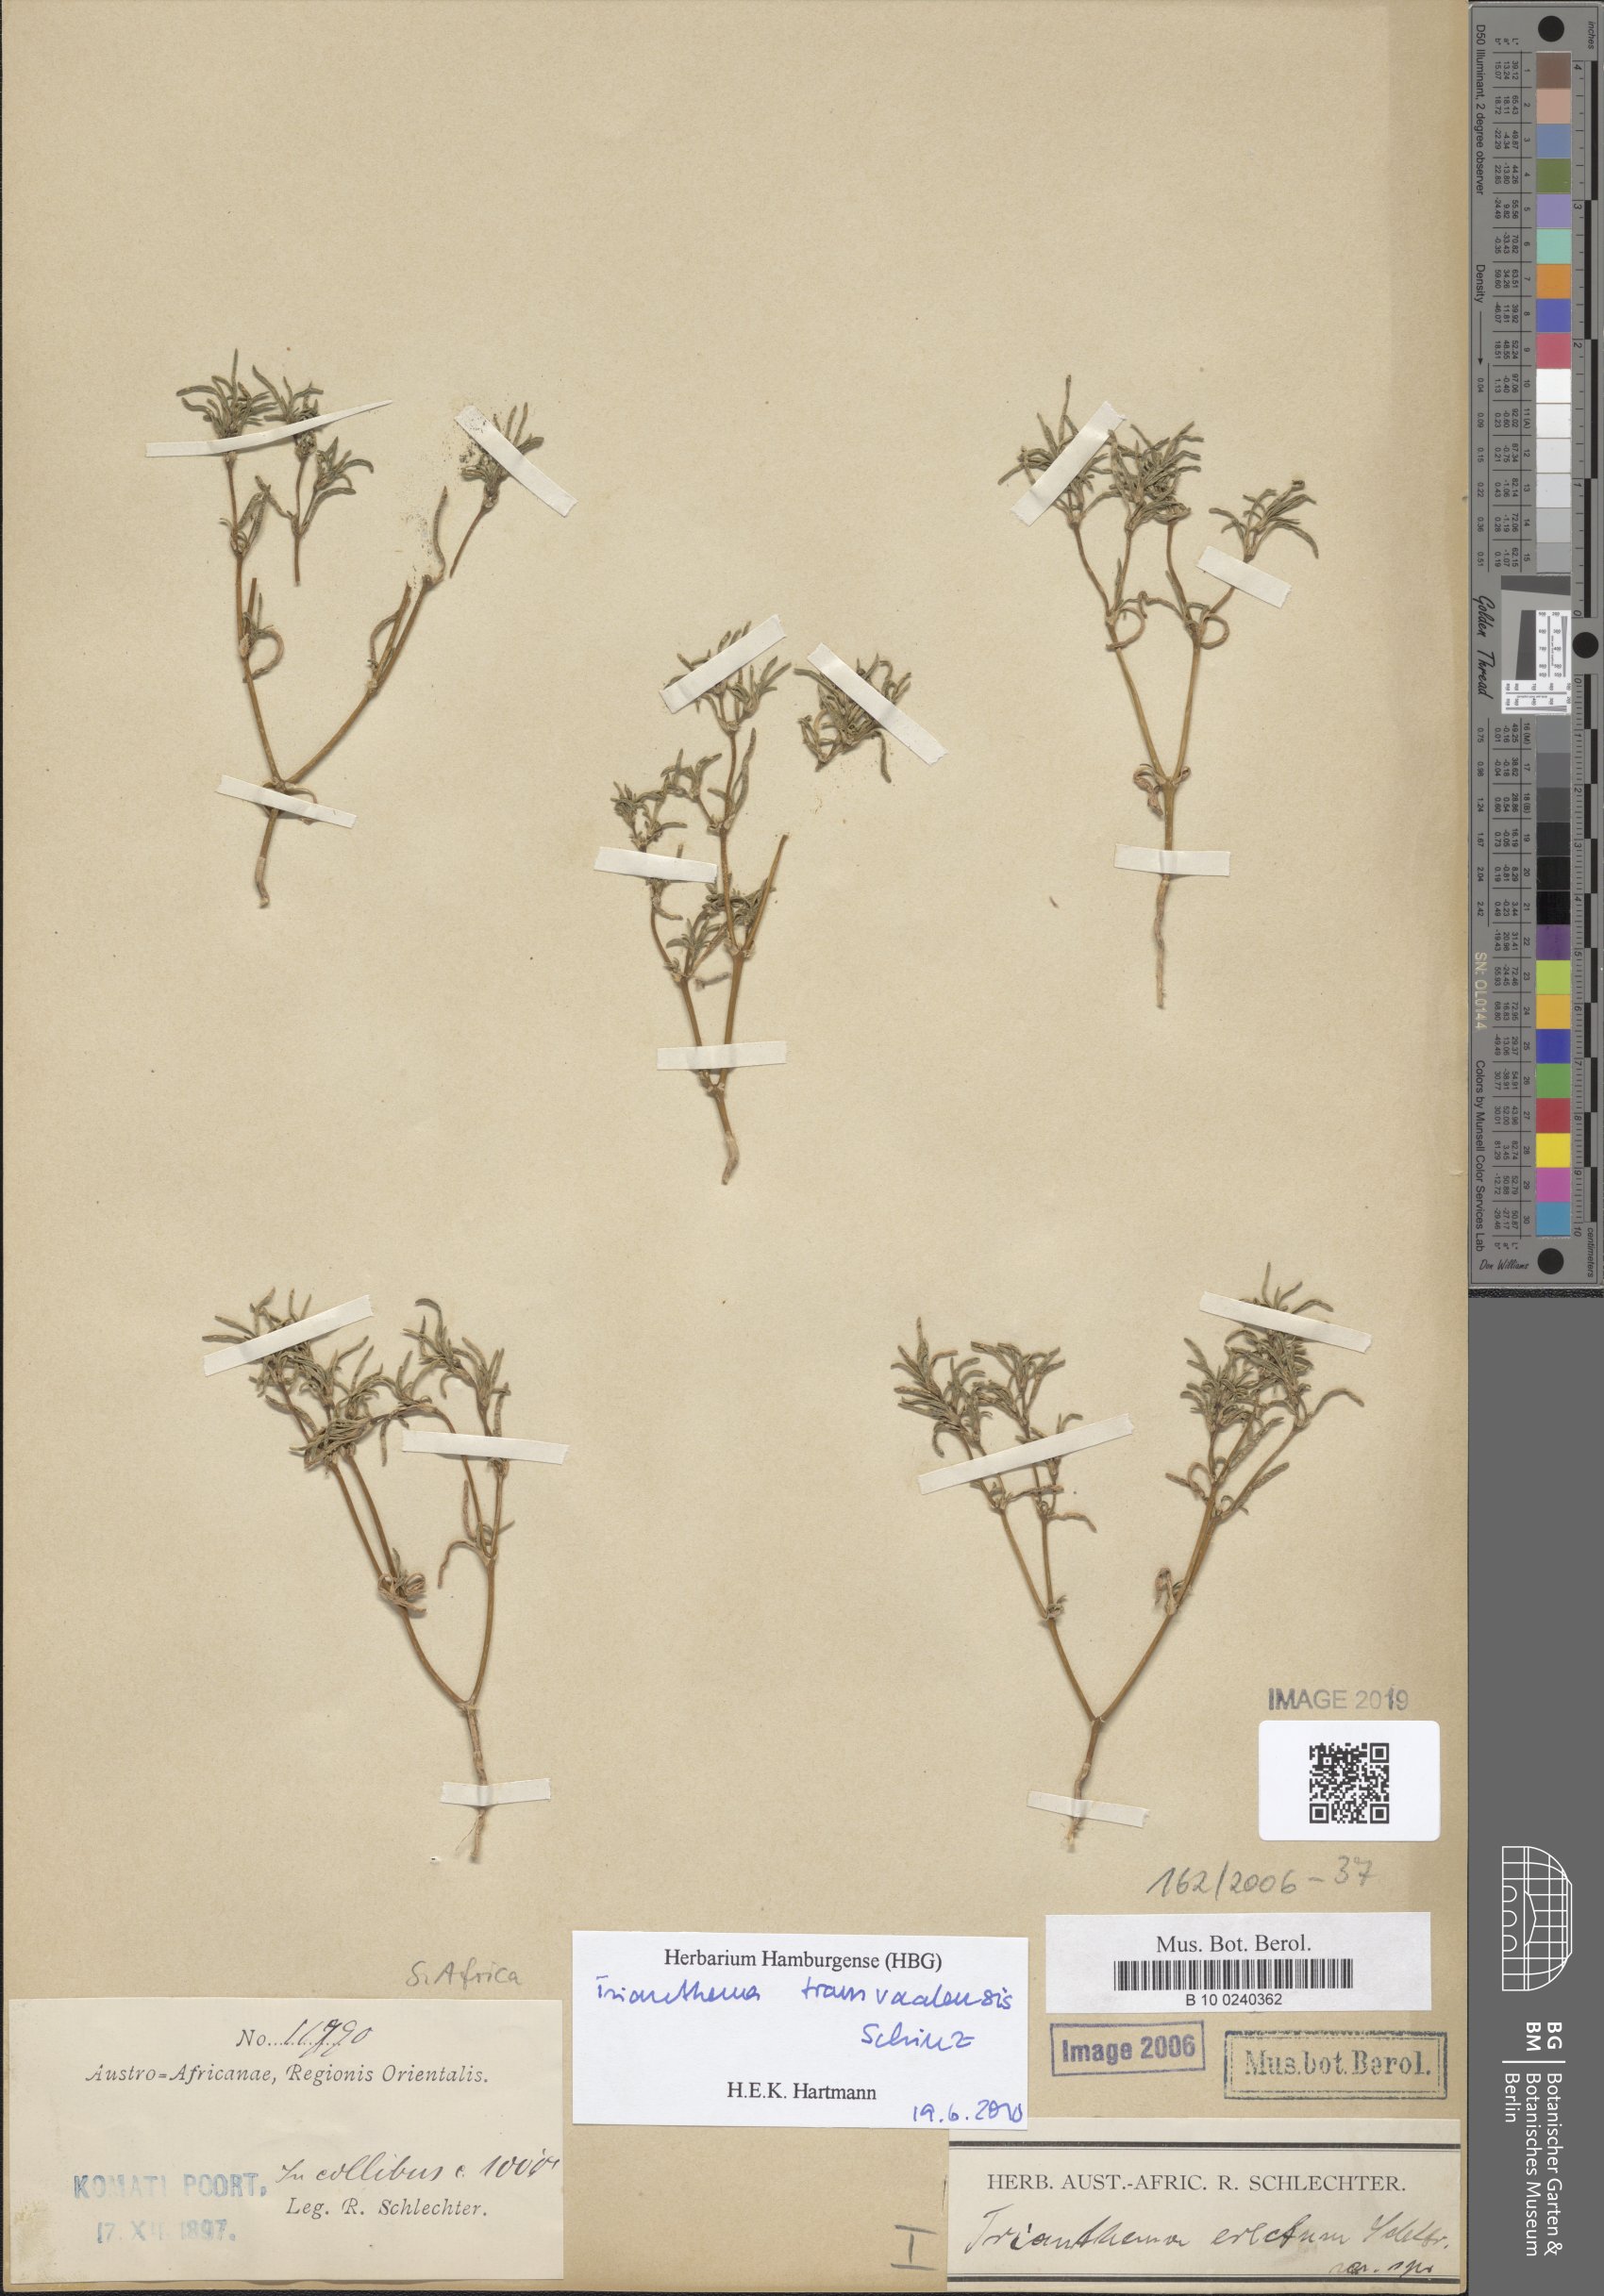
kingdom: Plantae
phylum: Tracheophyta
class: Magnoliopsida
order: Caryophyllales
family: Aizoaceae
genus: Trianthema
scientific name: Trianthema
